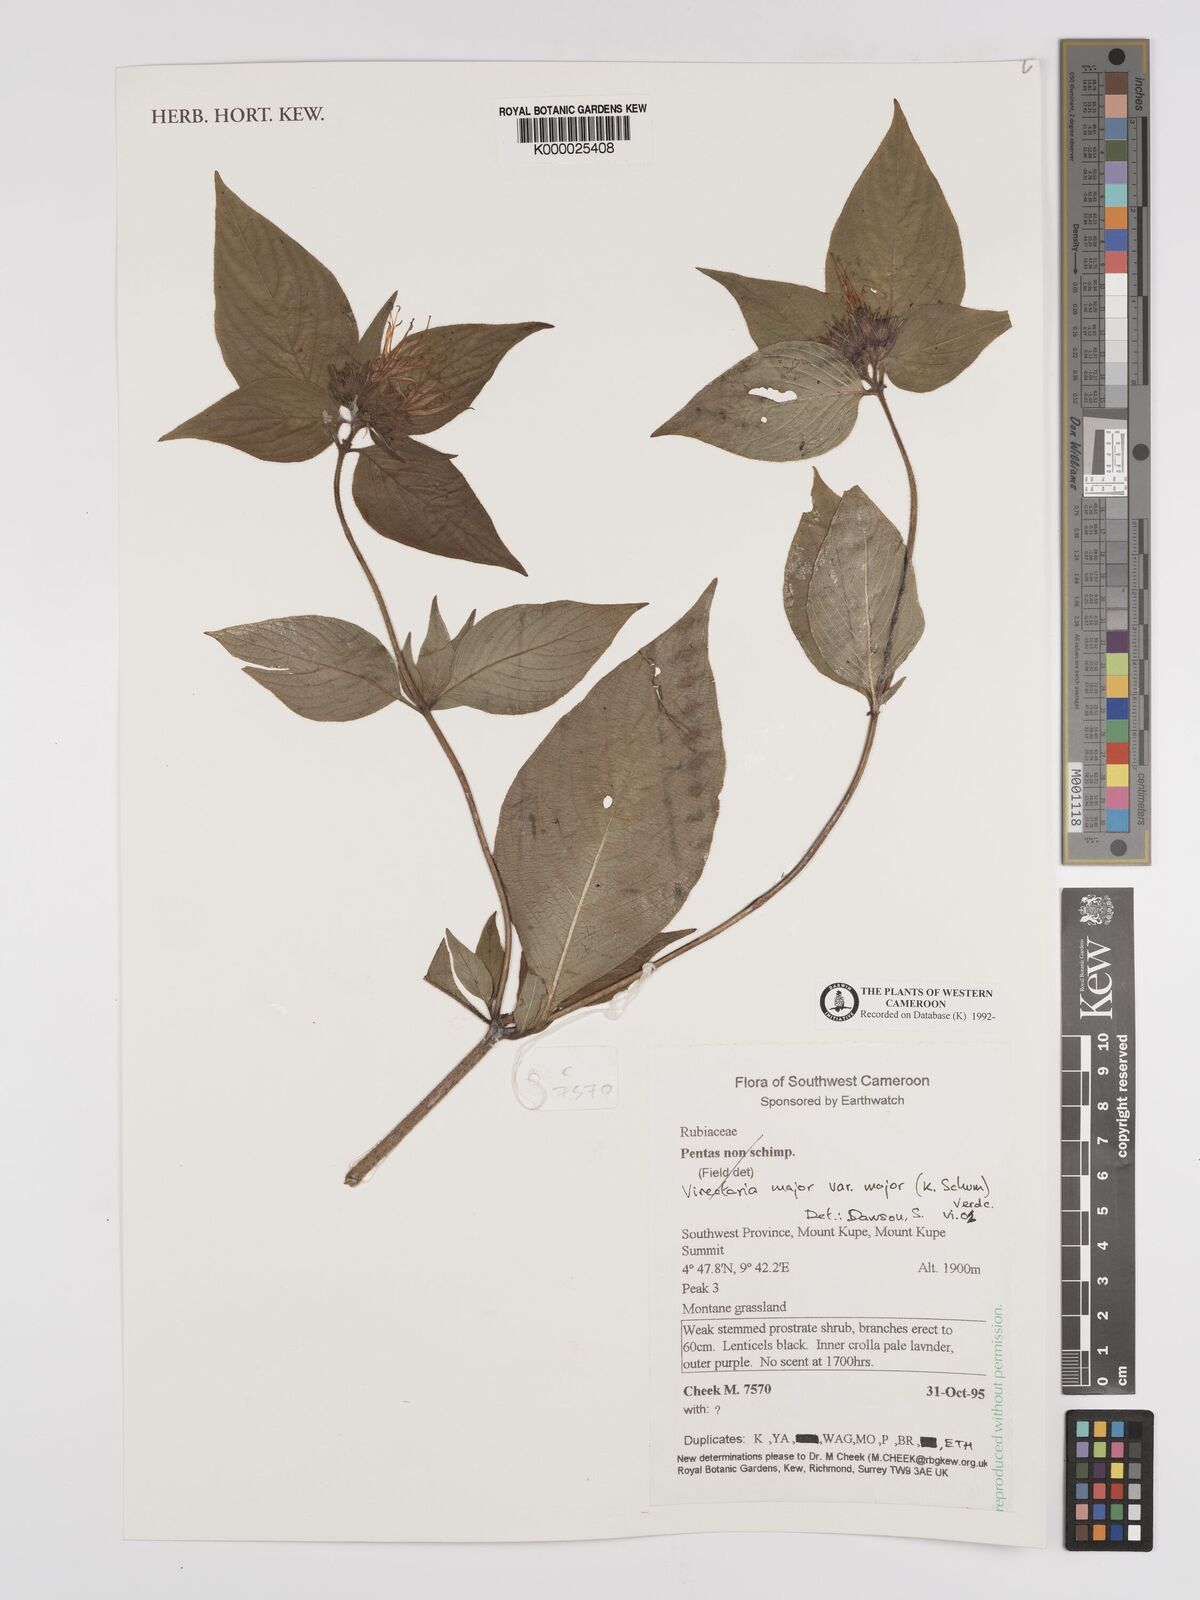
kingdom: Plantae
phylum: Tracheophyta
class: Magnoliopsida
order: Gentianales
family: Rubiaceae
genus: Virectaria
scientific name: Virectaria major
